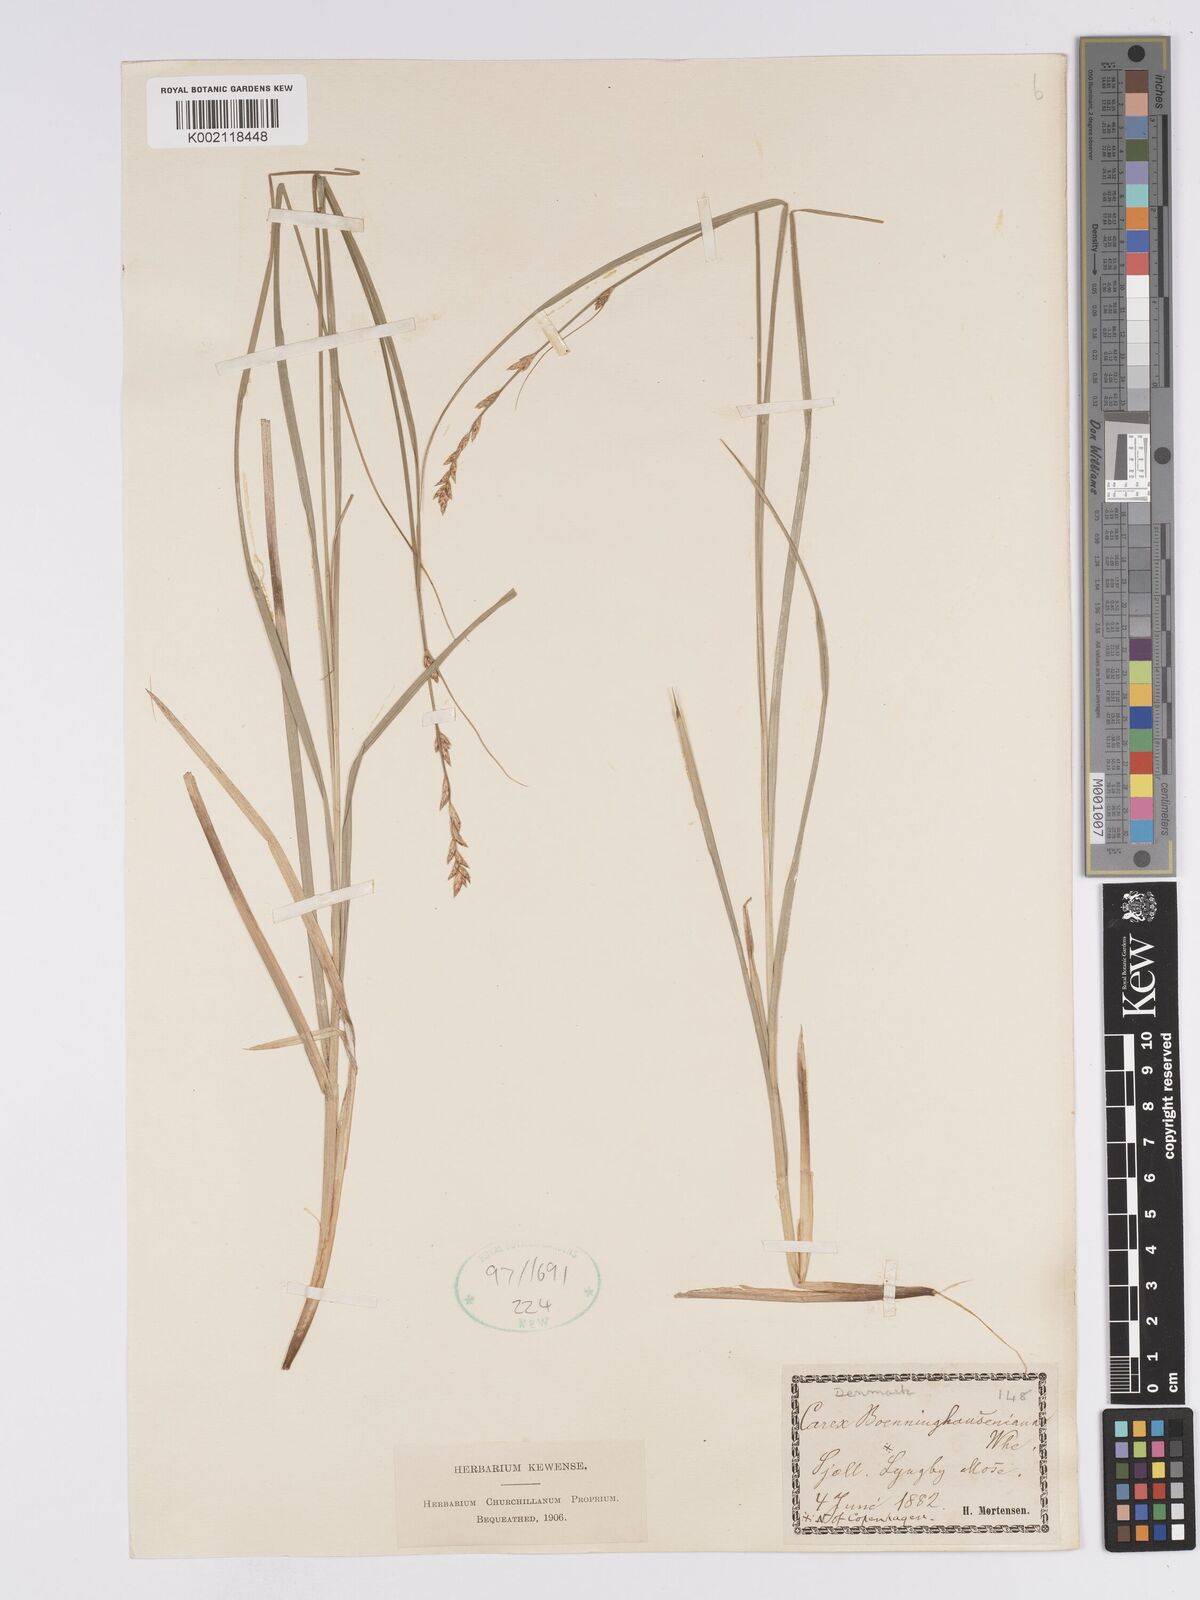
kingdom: Plantae
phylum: Tracheophyta
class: Liliopsida
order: Poales
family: Cyperaceae
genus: Carex
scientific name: Carex boenninghausiana
